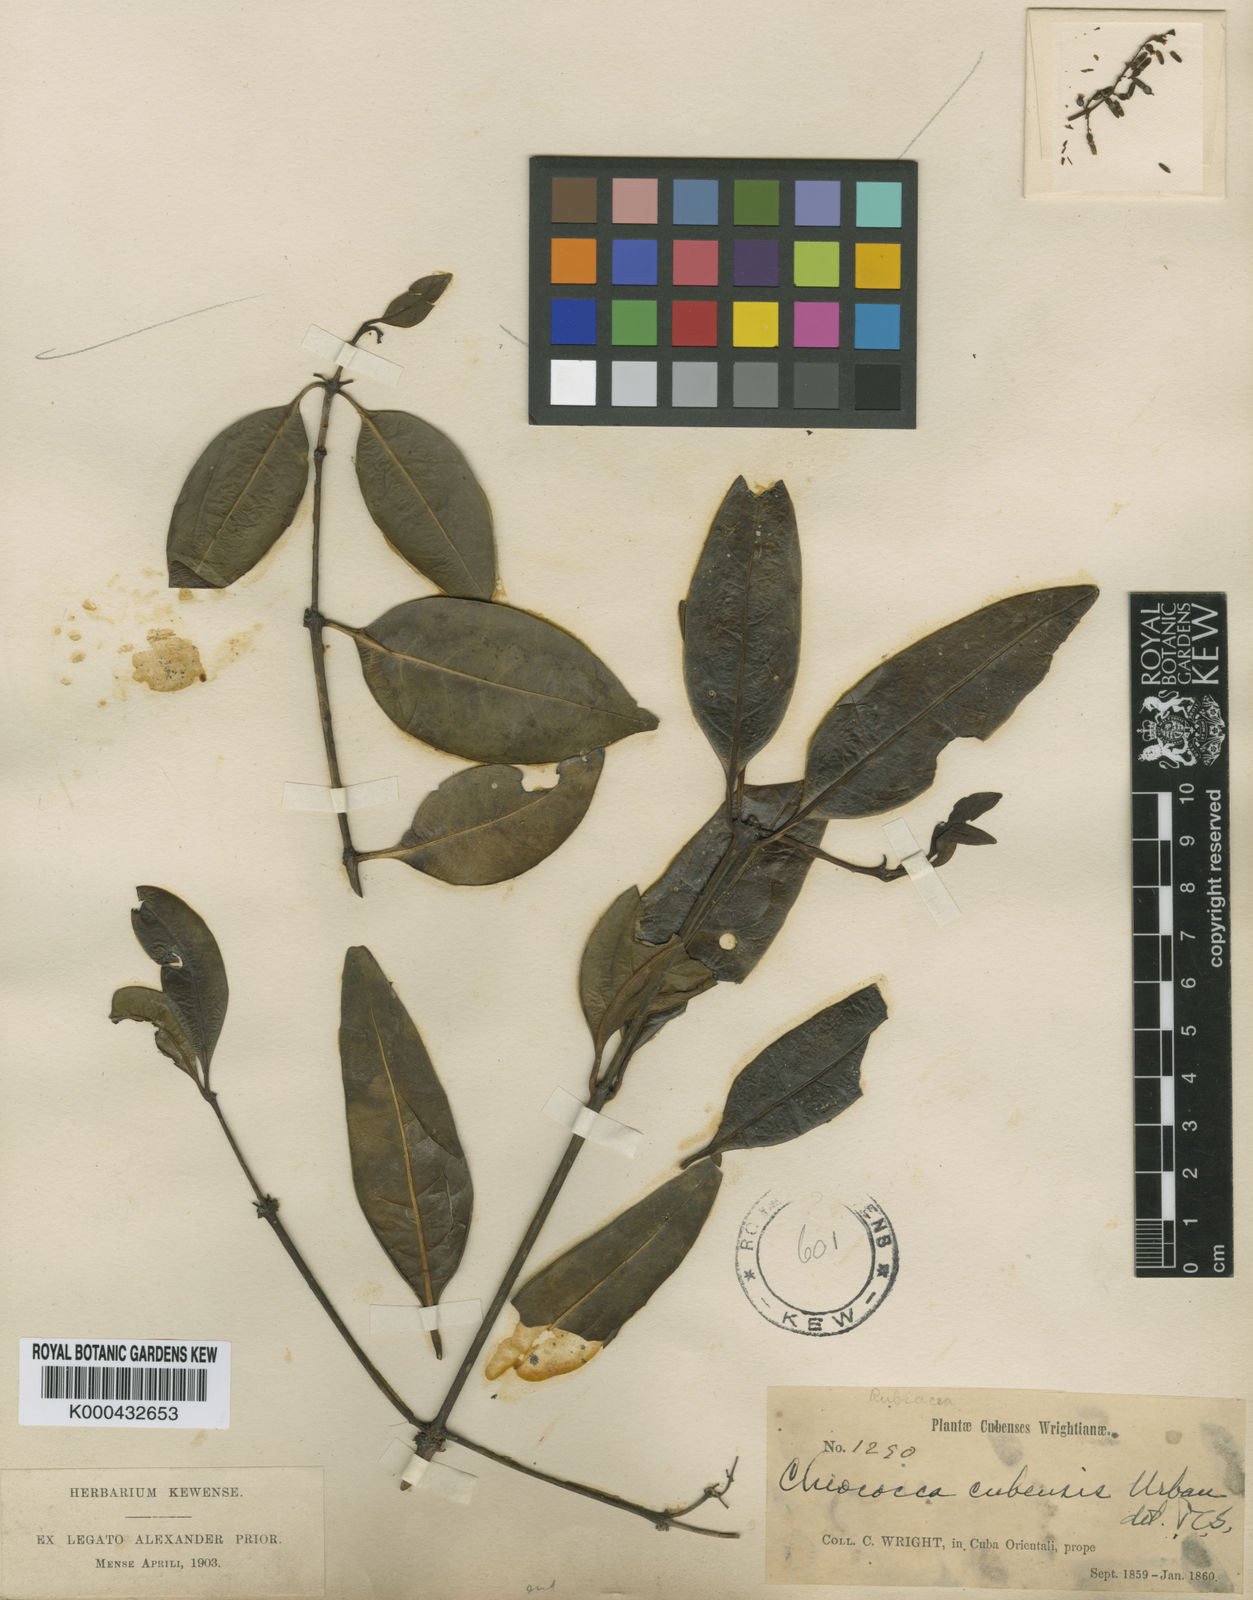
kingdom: Plantae
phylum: Tracheophyta
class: Magnoliopsida
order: Gentianales
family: Rubiaceae
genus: Ramonadoxa
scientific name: Ramonadoxa cubensis
